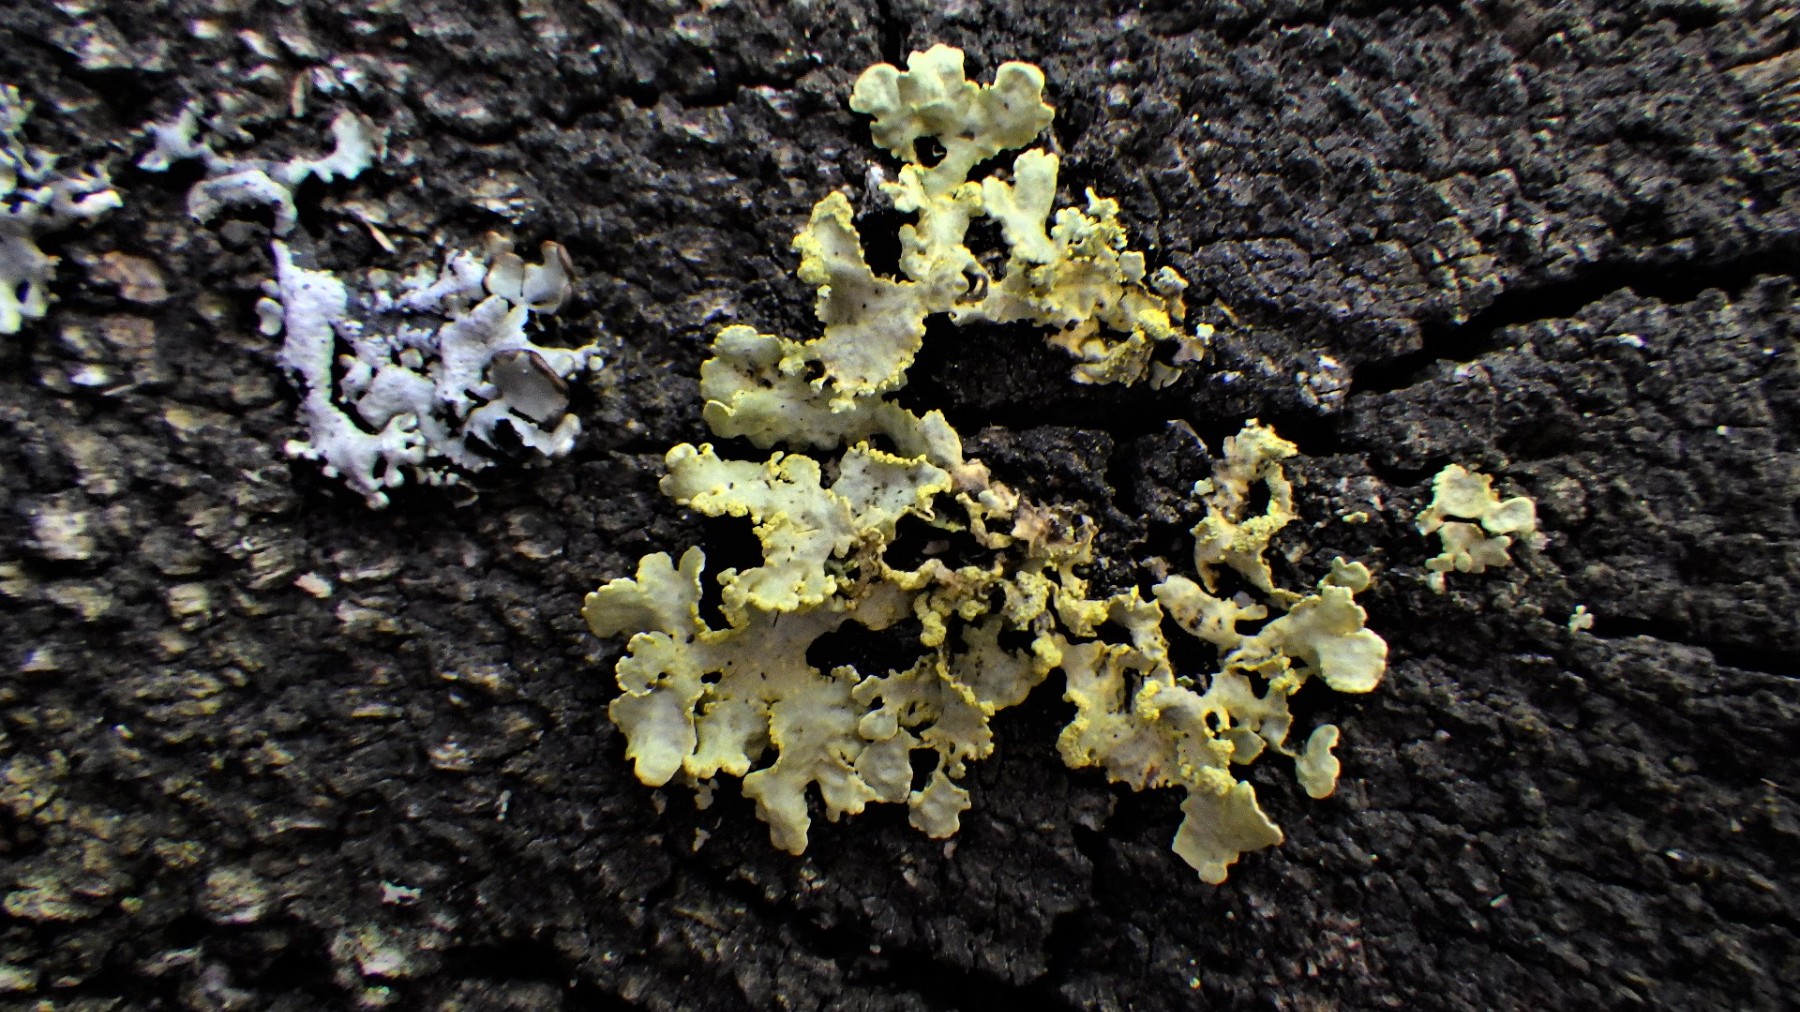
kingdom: Fungi
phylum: Ascomycota
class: Lecanoromycetes
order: Lecanorales
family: Parmeliaceae
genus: Vulpicida
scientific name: Vulpicida pinastri
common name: gul kruslav
